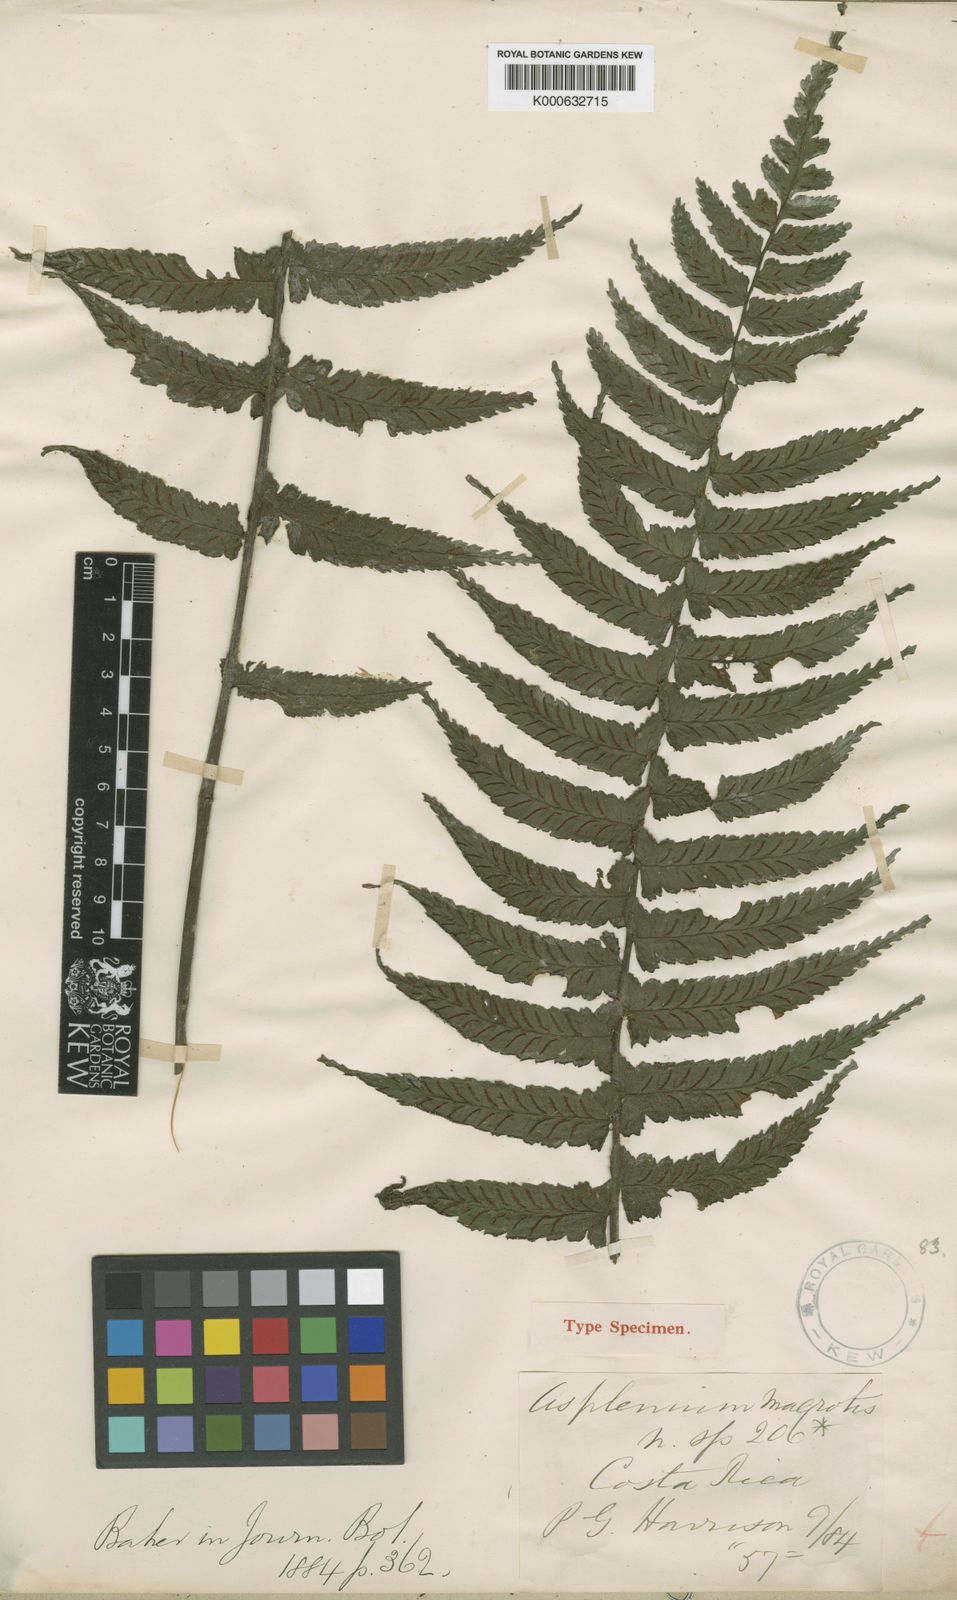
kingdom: Plantae
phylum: Tracheophyta
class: Polypodiopsida
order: Polypodiales
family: Athyriaceae
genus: Diplazium
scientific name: Diplazium
